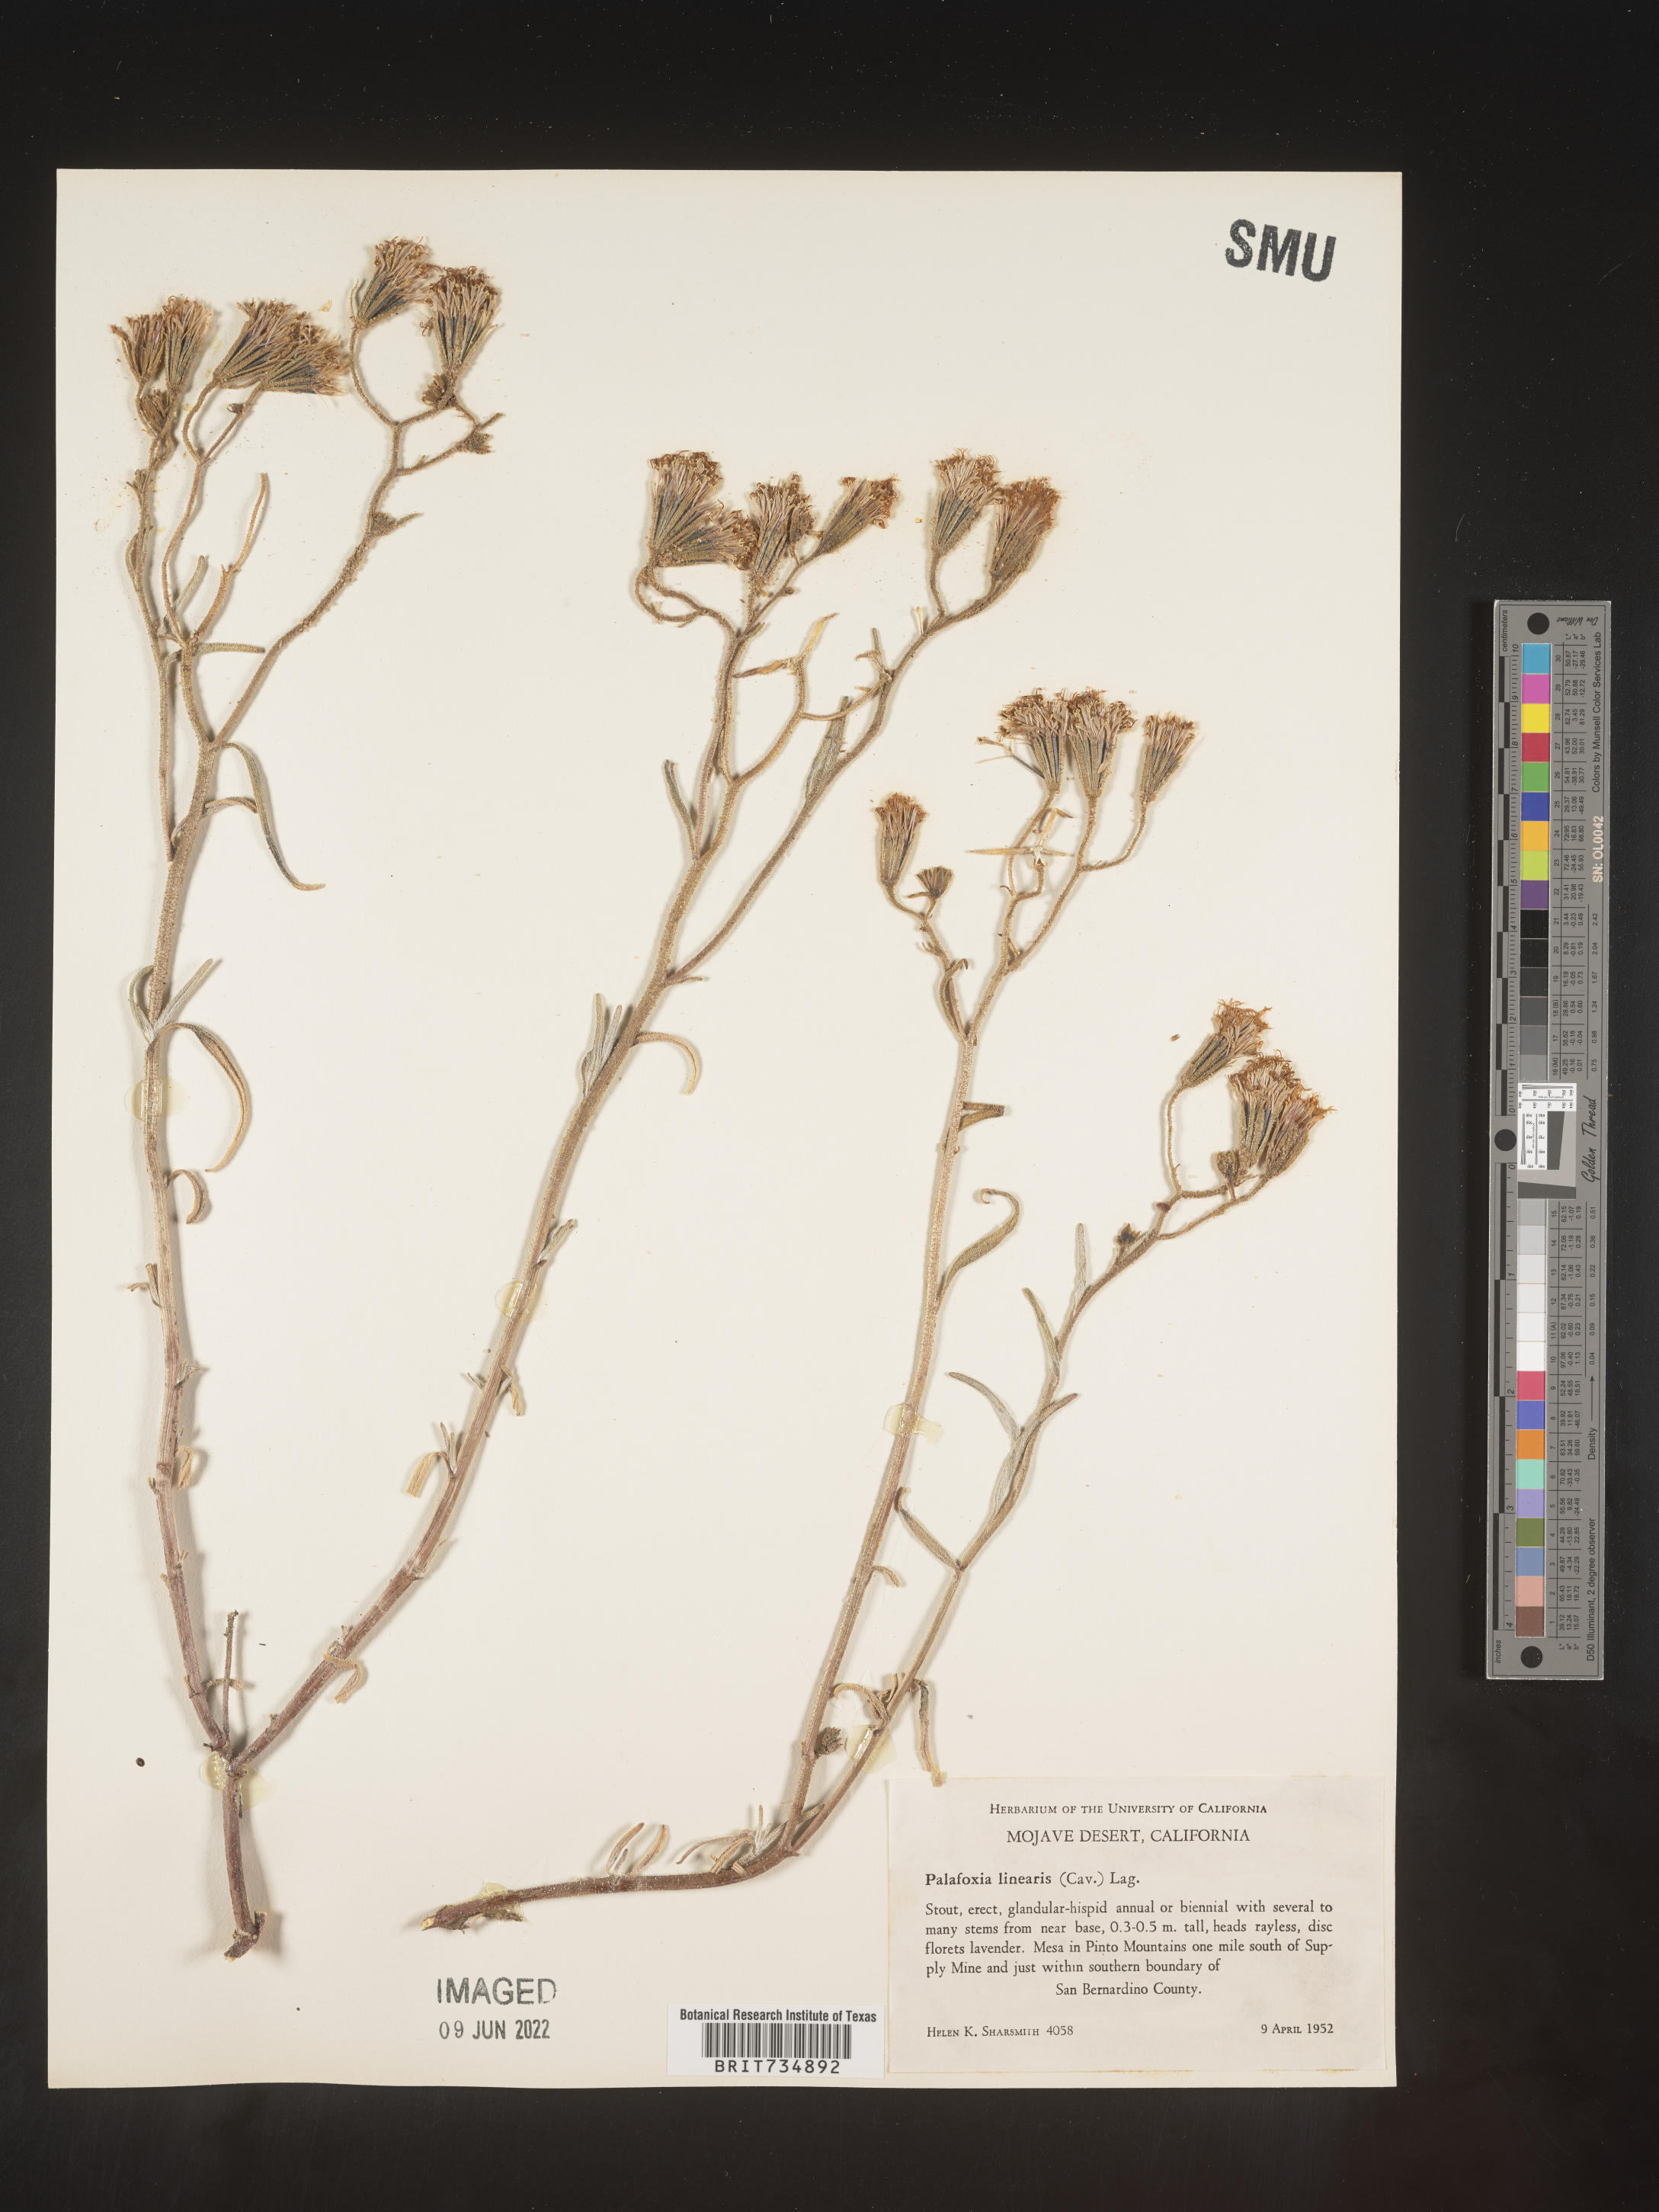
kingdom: Plantae
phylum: Tracheophyta
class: Magnoliopsida
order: Asterales
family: Asteraceae
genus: Palafoxia
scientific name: Palafoxia linearis
